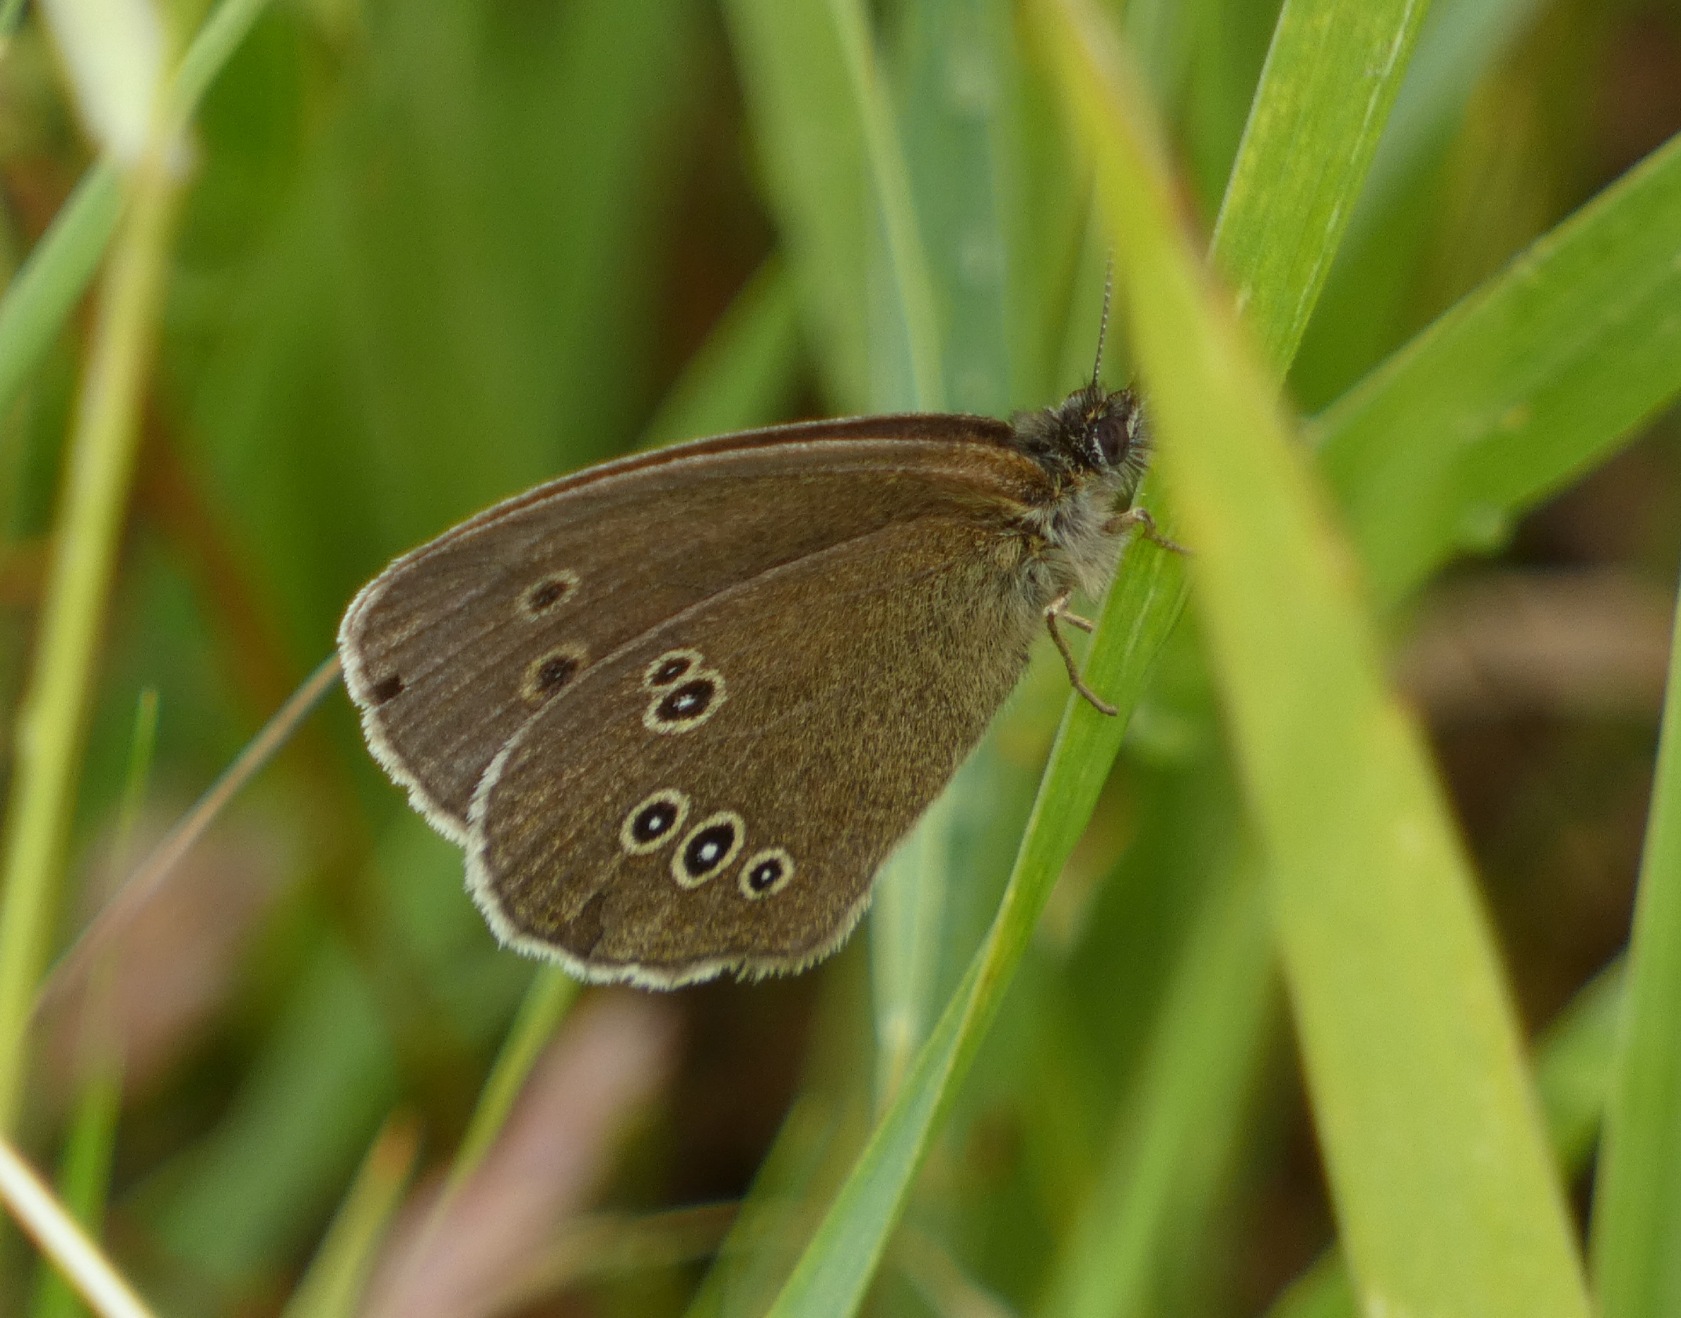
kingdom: Animalia
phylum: Arthropoda
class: Insecta
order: Lepidoptera
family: Nymphalidae
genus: Aphantopus
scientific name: Aphantopus hyperantus
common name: Engrandøje
